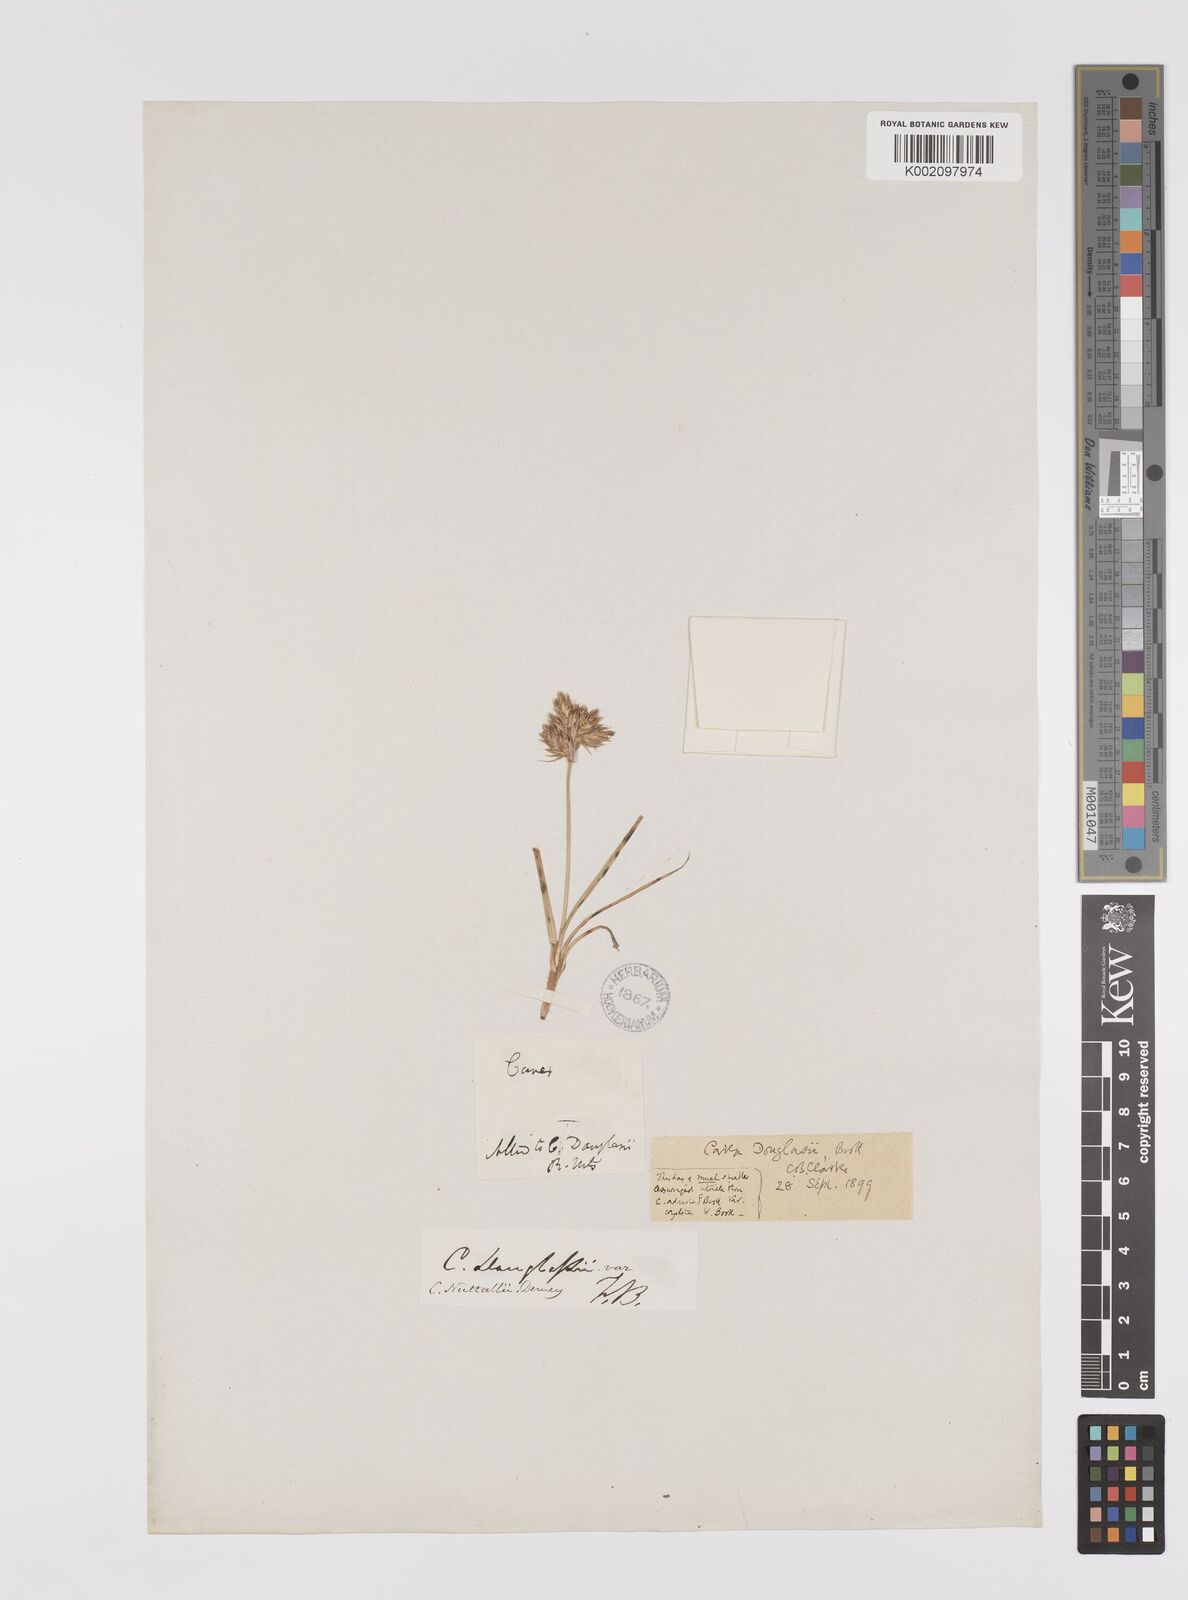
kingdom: Plantae
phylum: Tracheophyta
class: Liliopsida
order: Poales
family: Cyperaceae
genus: Carex
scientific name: Carex douglasii
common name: Douglas' sedge
